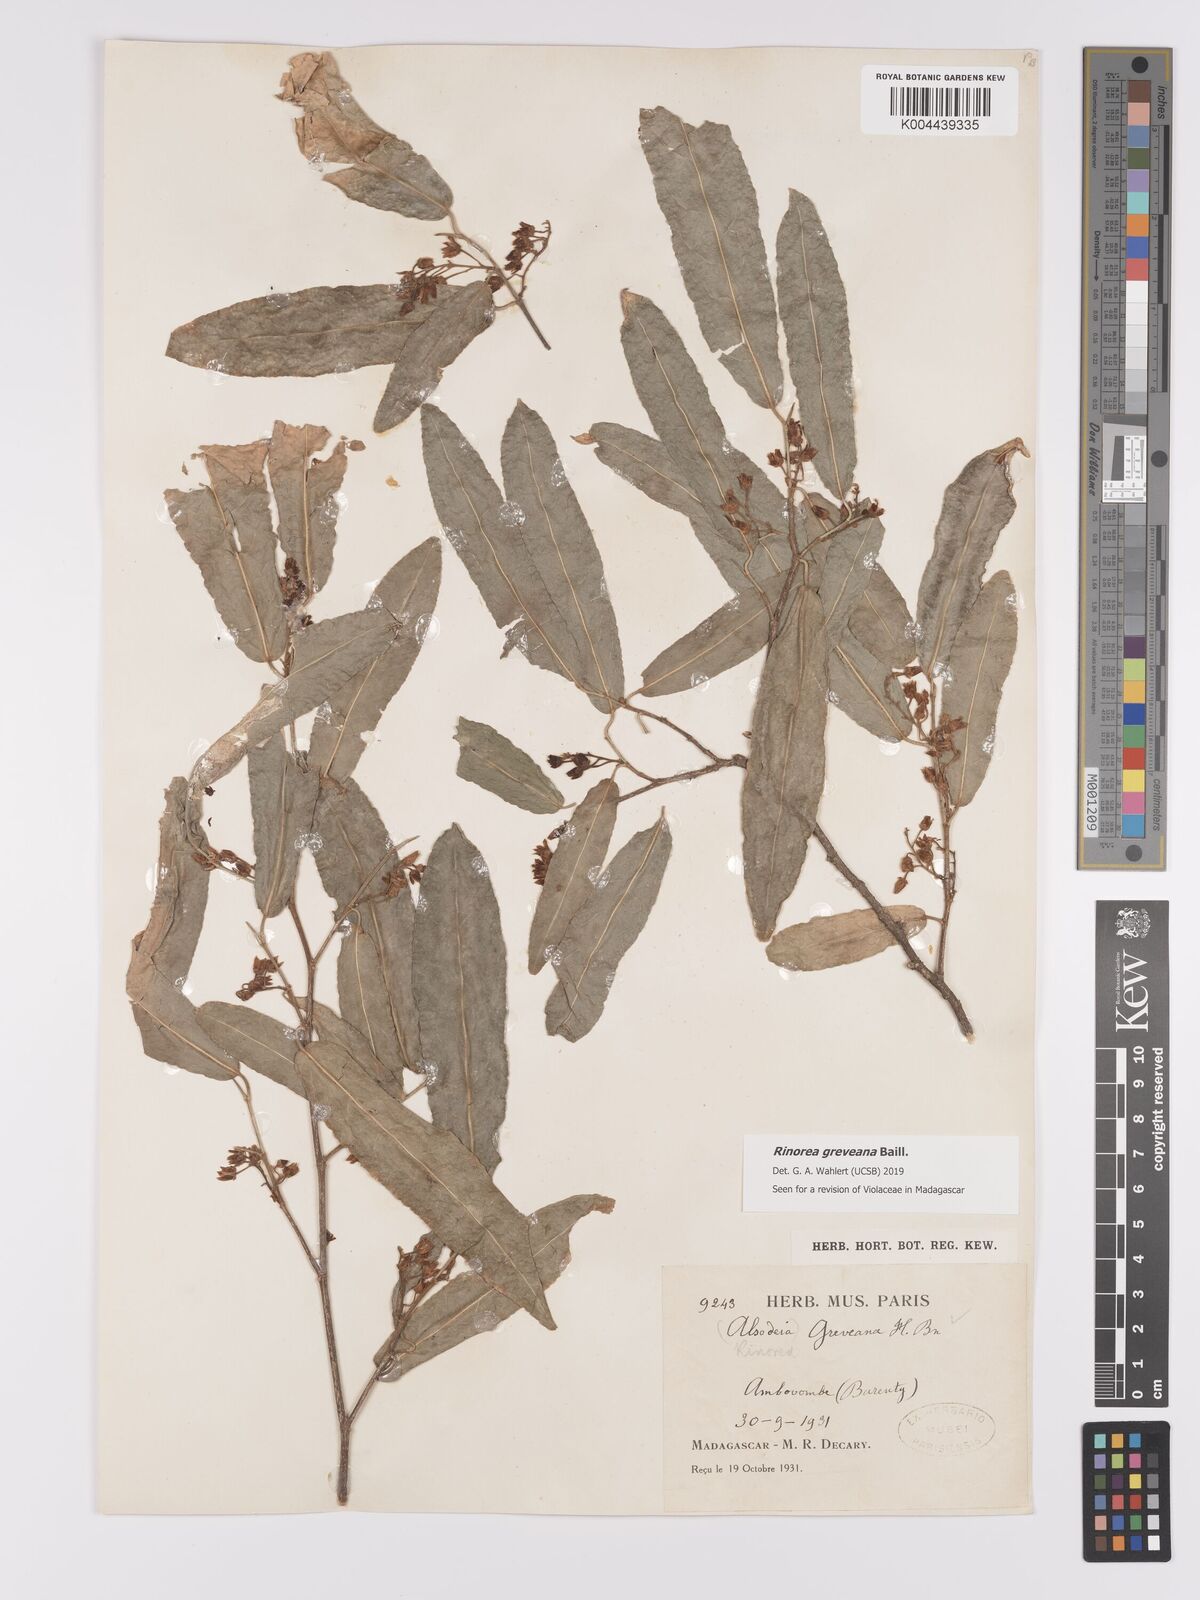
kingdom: Plantae
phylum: Tracheophyta
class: Magnoliopsida
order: Malpighiales
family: Violaceae
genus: Rinorea
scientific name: Rinorea greveana
